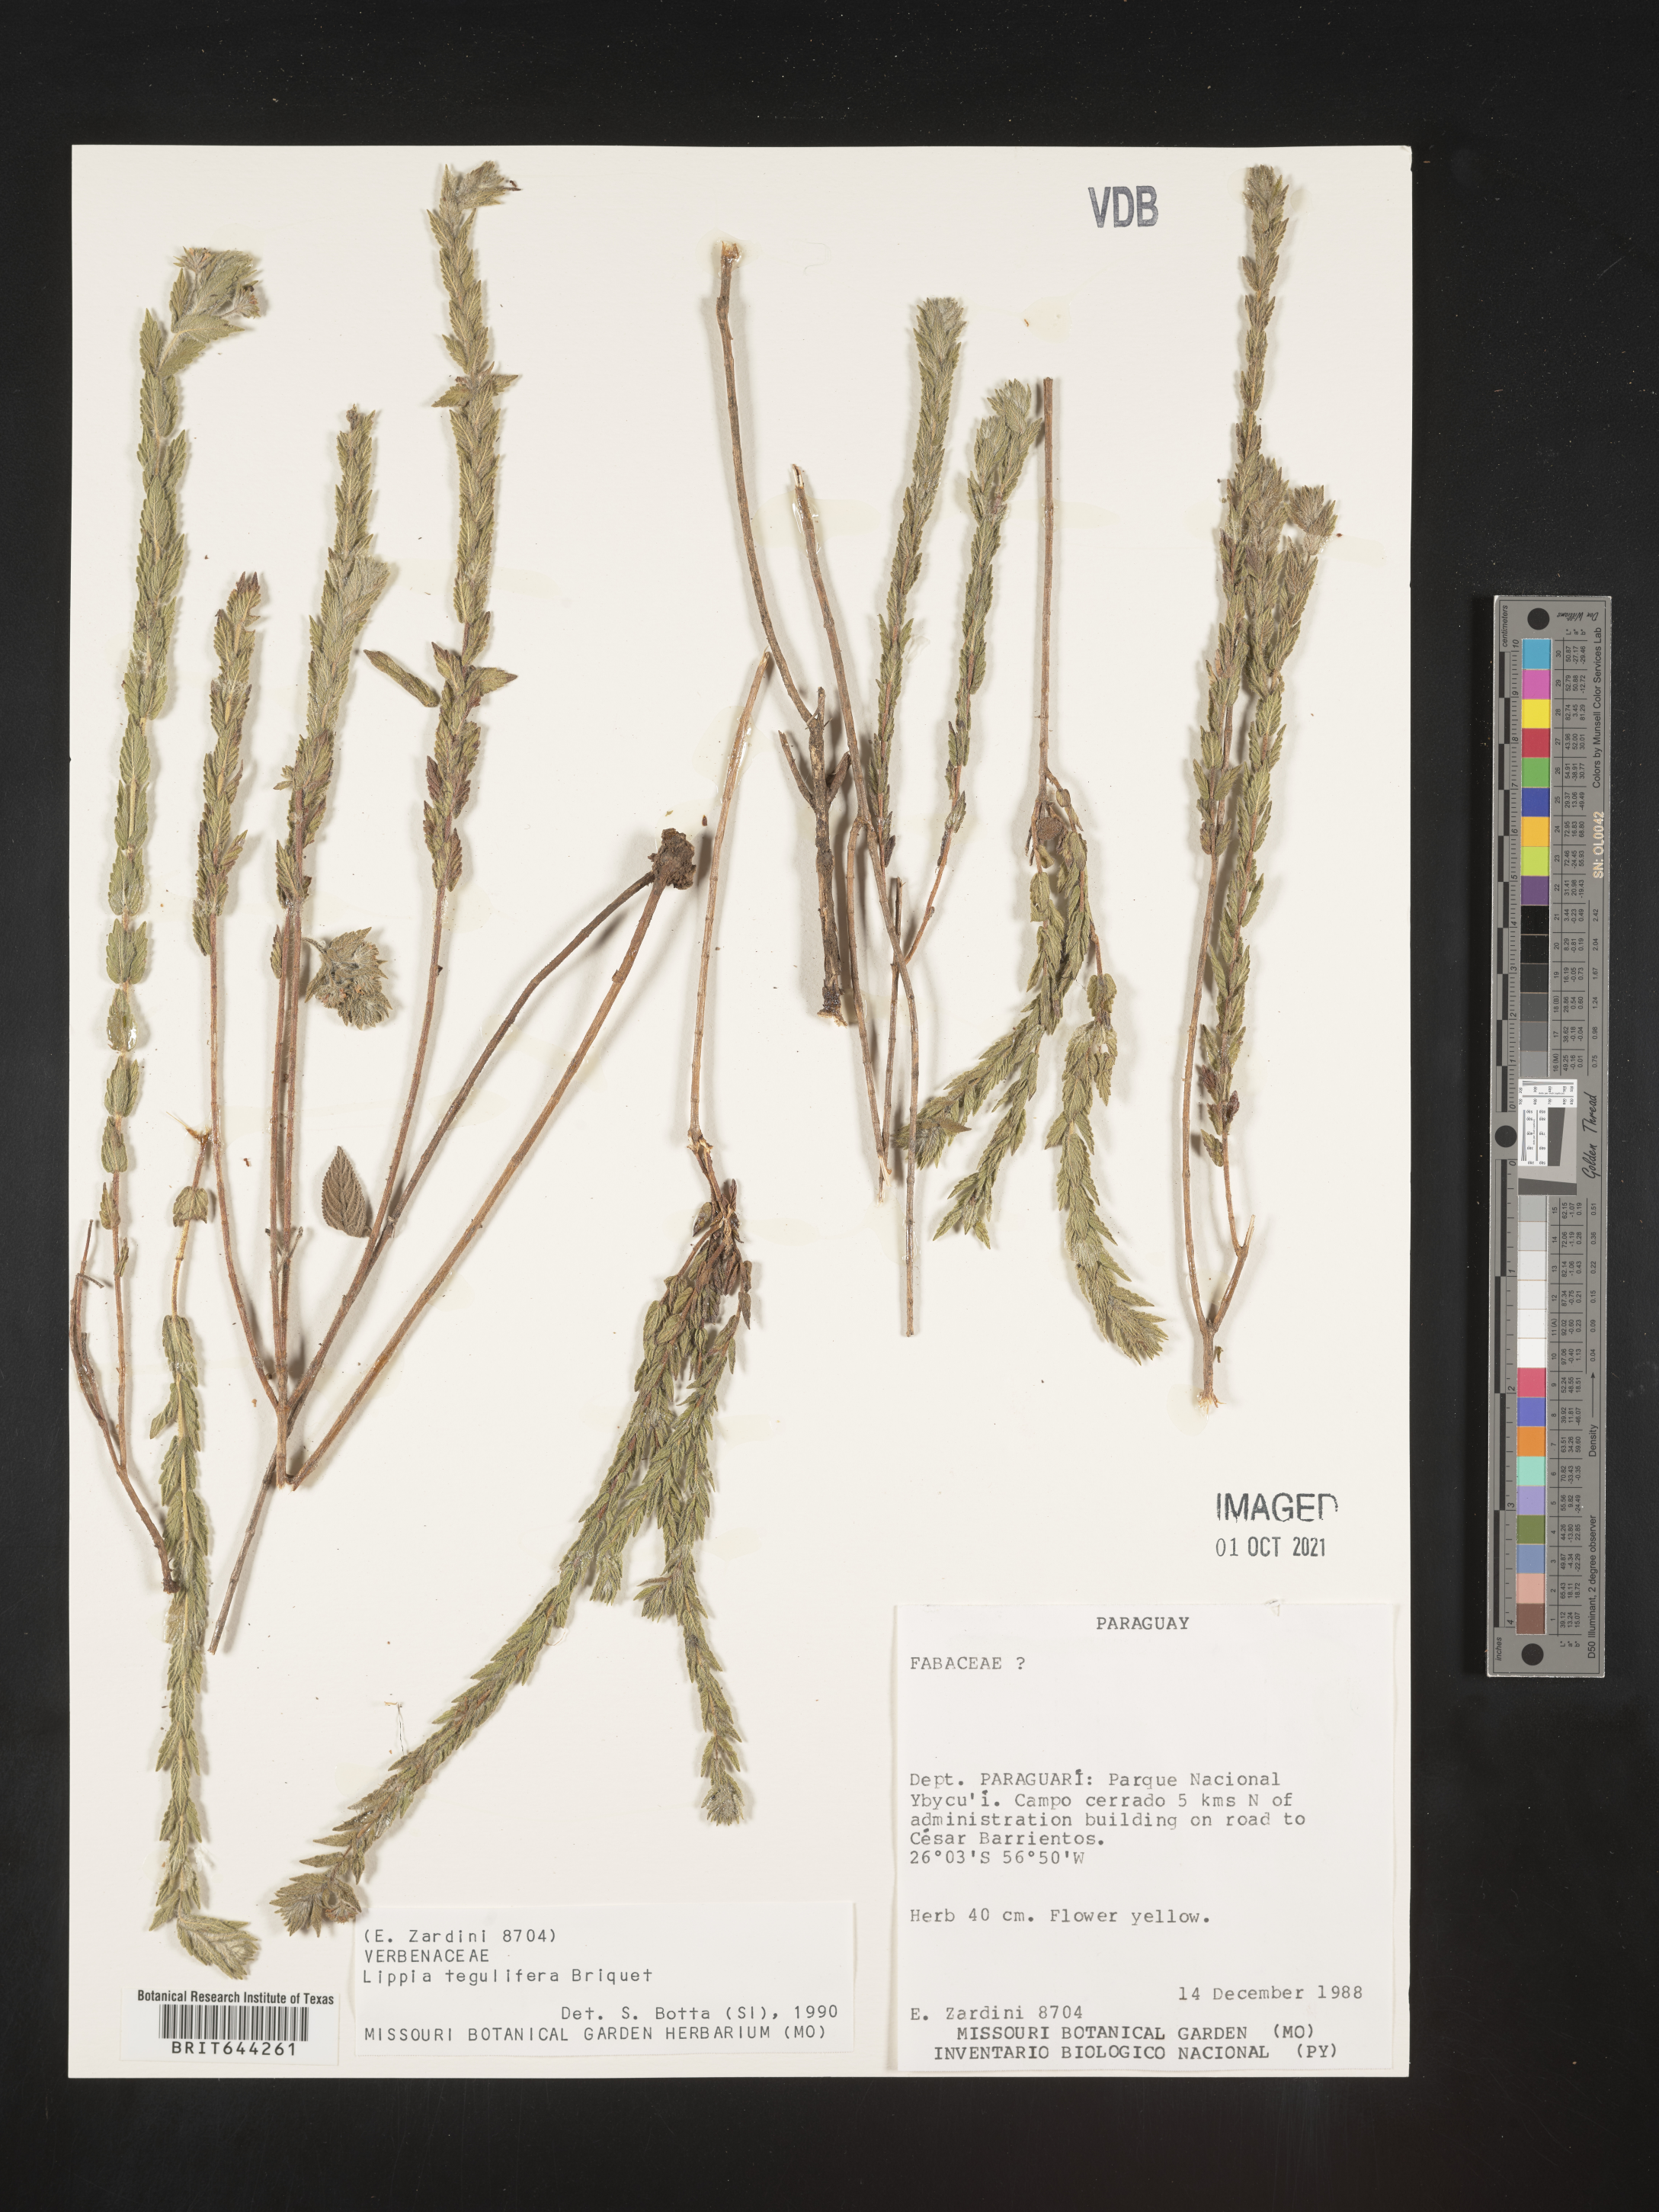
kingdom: Plantae
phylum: Tracheophyta
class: Magnoliopsida
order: Lamiales
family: Verbenaceae
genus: Lippia
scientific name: Lippia
